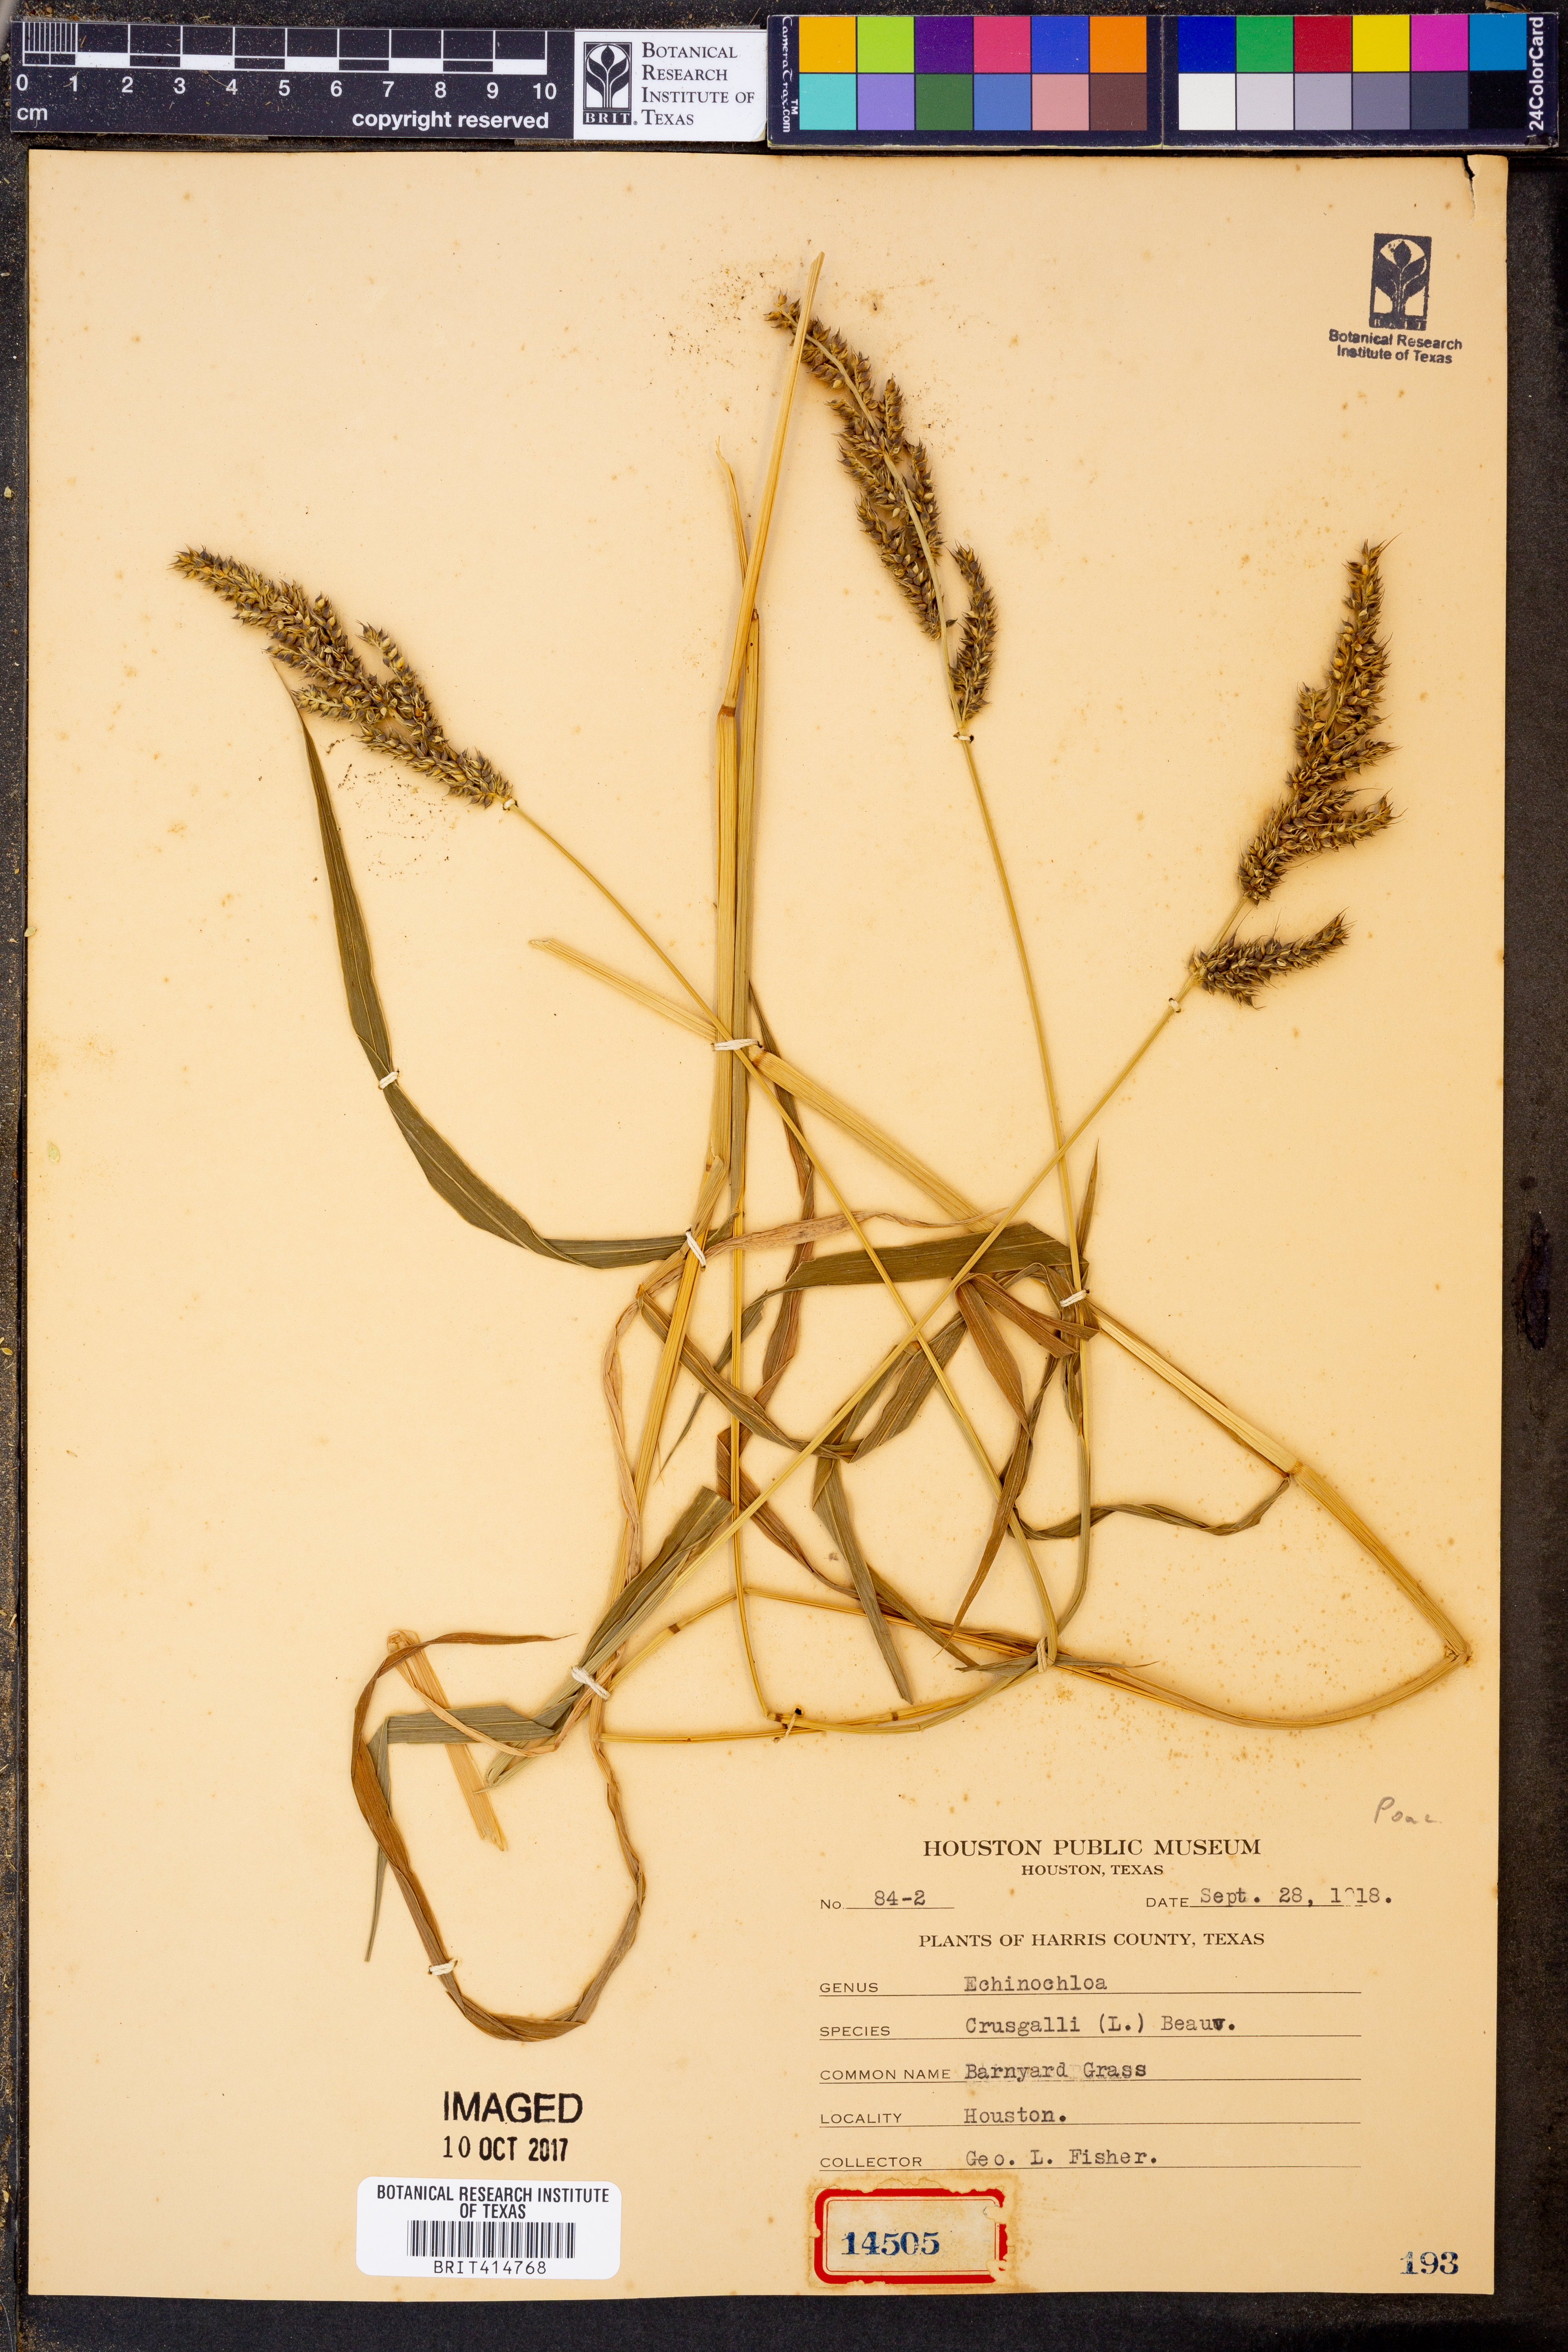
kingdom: Plantae
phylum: Tracheophyta
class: Liliopsida
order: Poales
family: Poaceae
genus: Echinochloa
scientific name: Echinochloa
